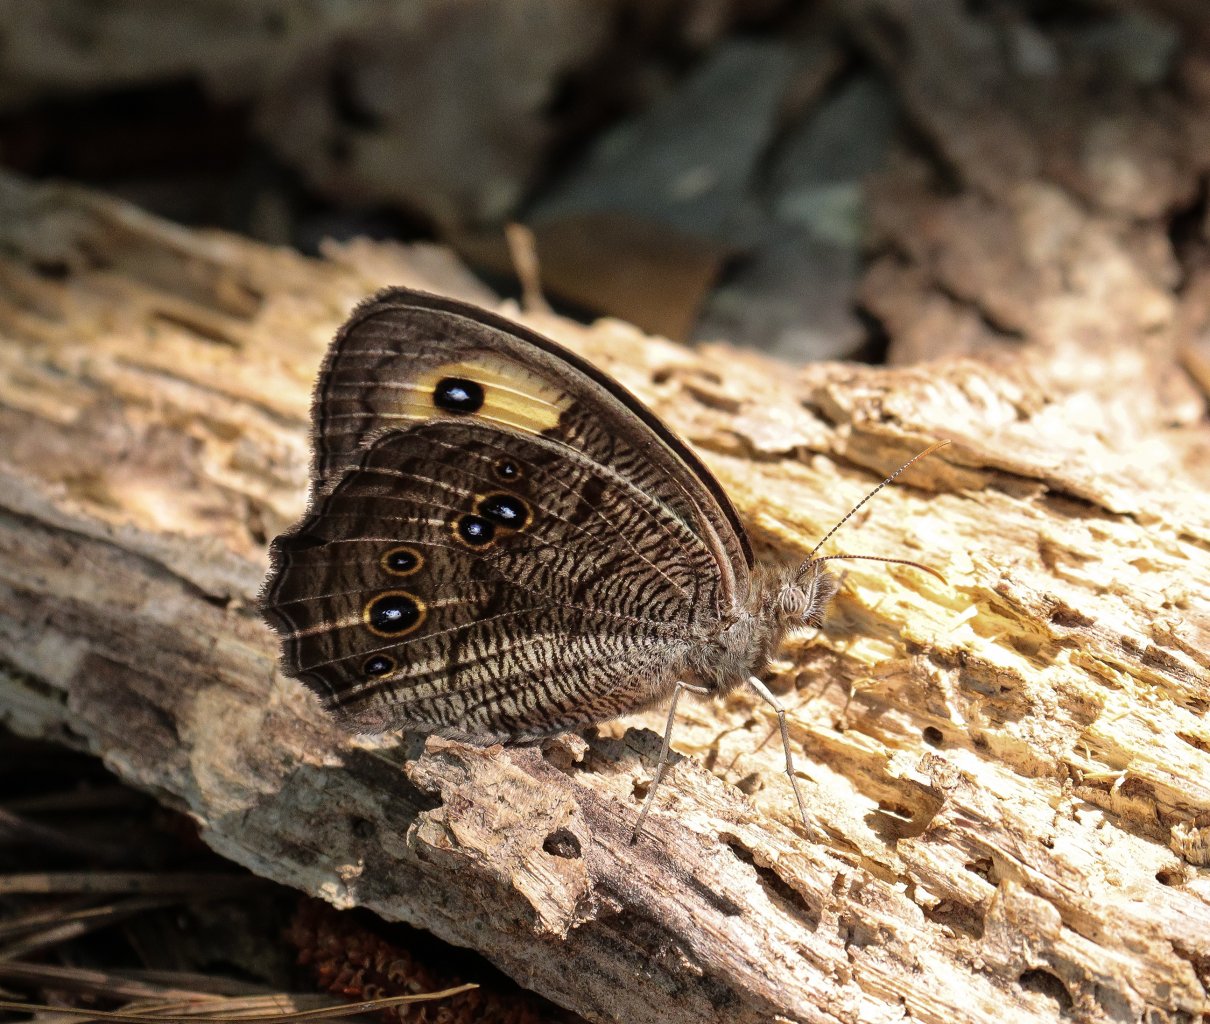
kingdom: Animalia
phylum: Arthropoda
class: Insecta
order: Lepidoptera
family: Nymphalidae
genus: Cercyonis
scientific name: Cercyonis pegala
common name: Common Wood-Nymph
